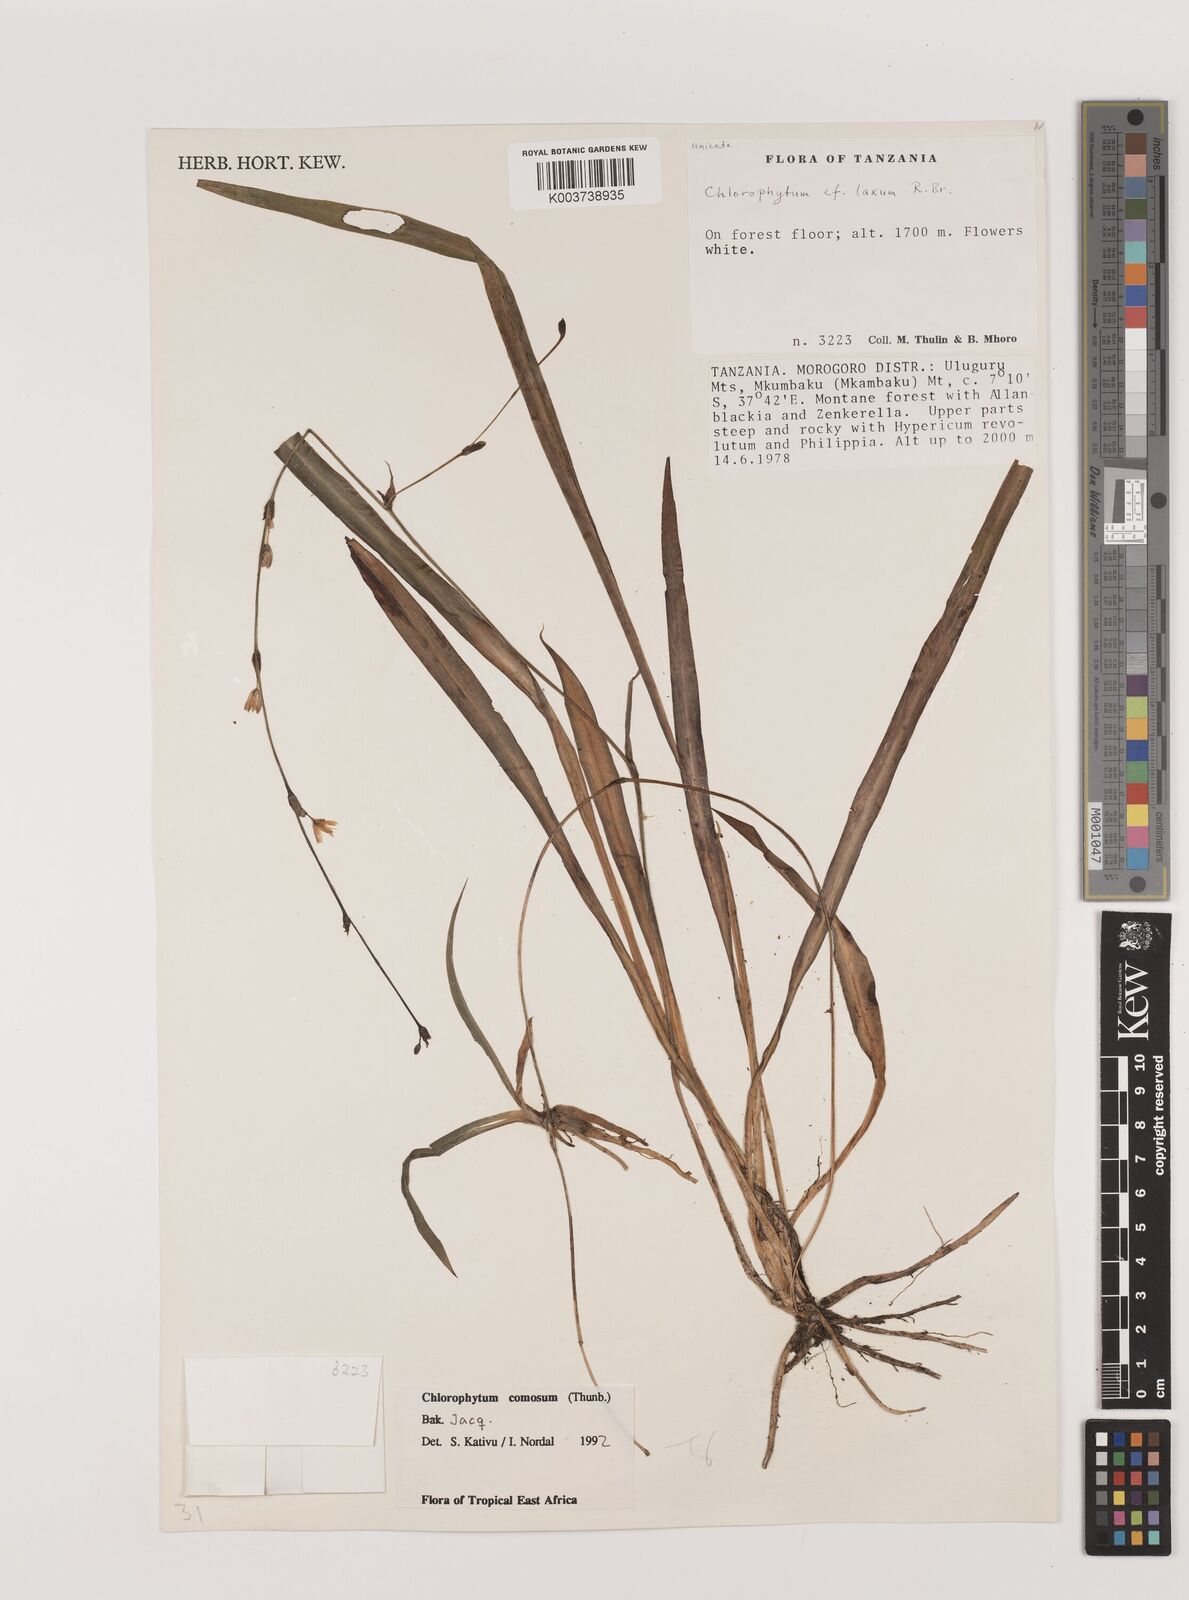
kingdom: Plantae
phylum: Tracheophyta
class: Liliopsida
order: Asparagales
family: Asparagaceae
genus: Chlorophytum
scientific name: Chlorophytum comosum
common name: Spider plant
